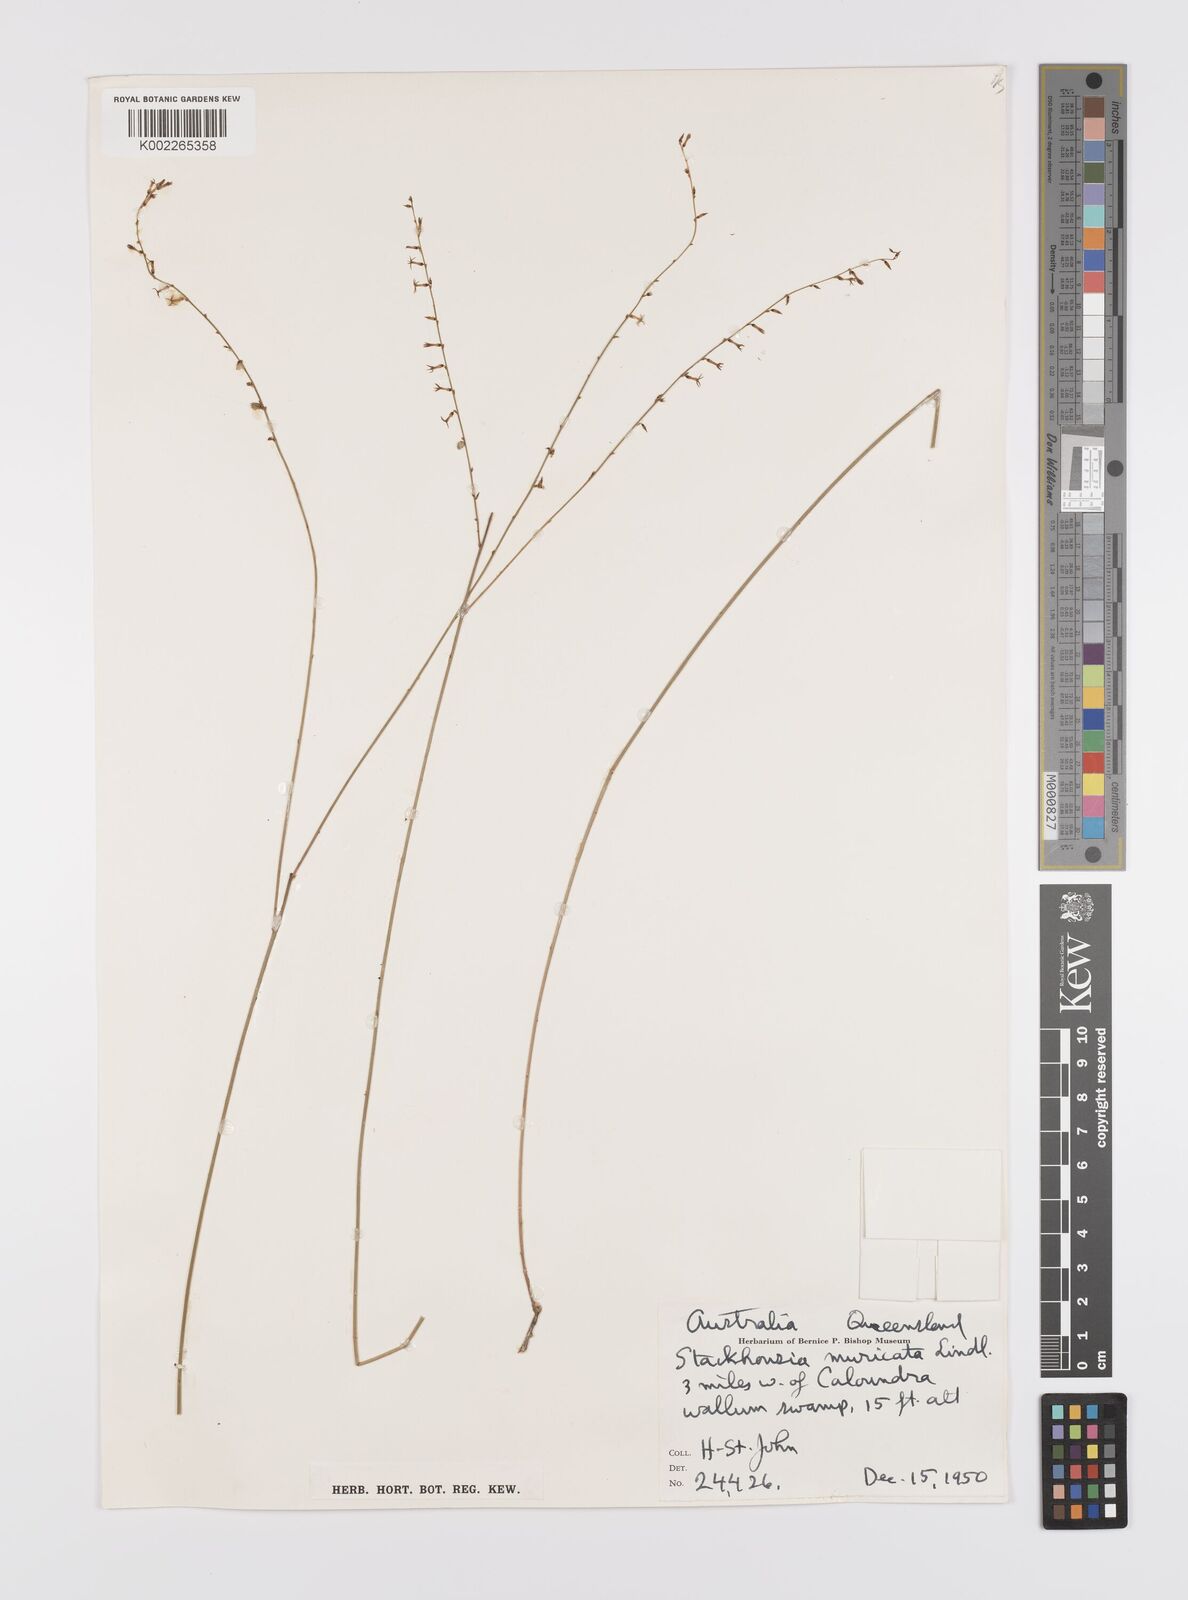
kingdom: Plantae
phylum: Tracheophyta
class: Magnoliopsida
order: Celastrales
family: Celastraceae
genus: Stackhousia
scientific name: Stackhousia muricata
